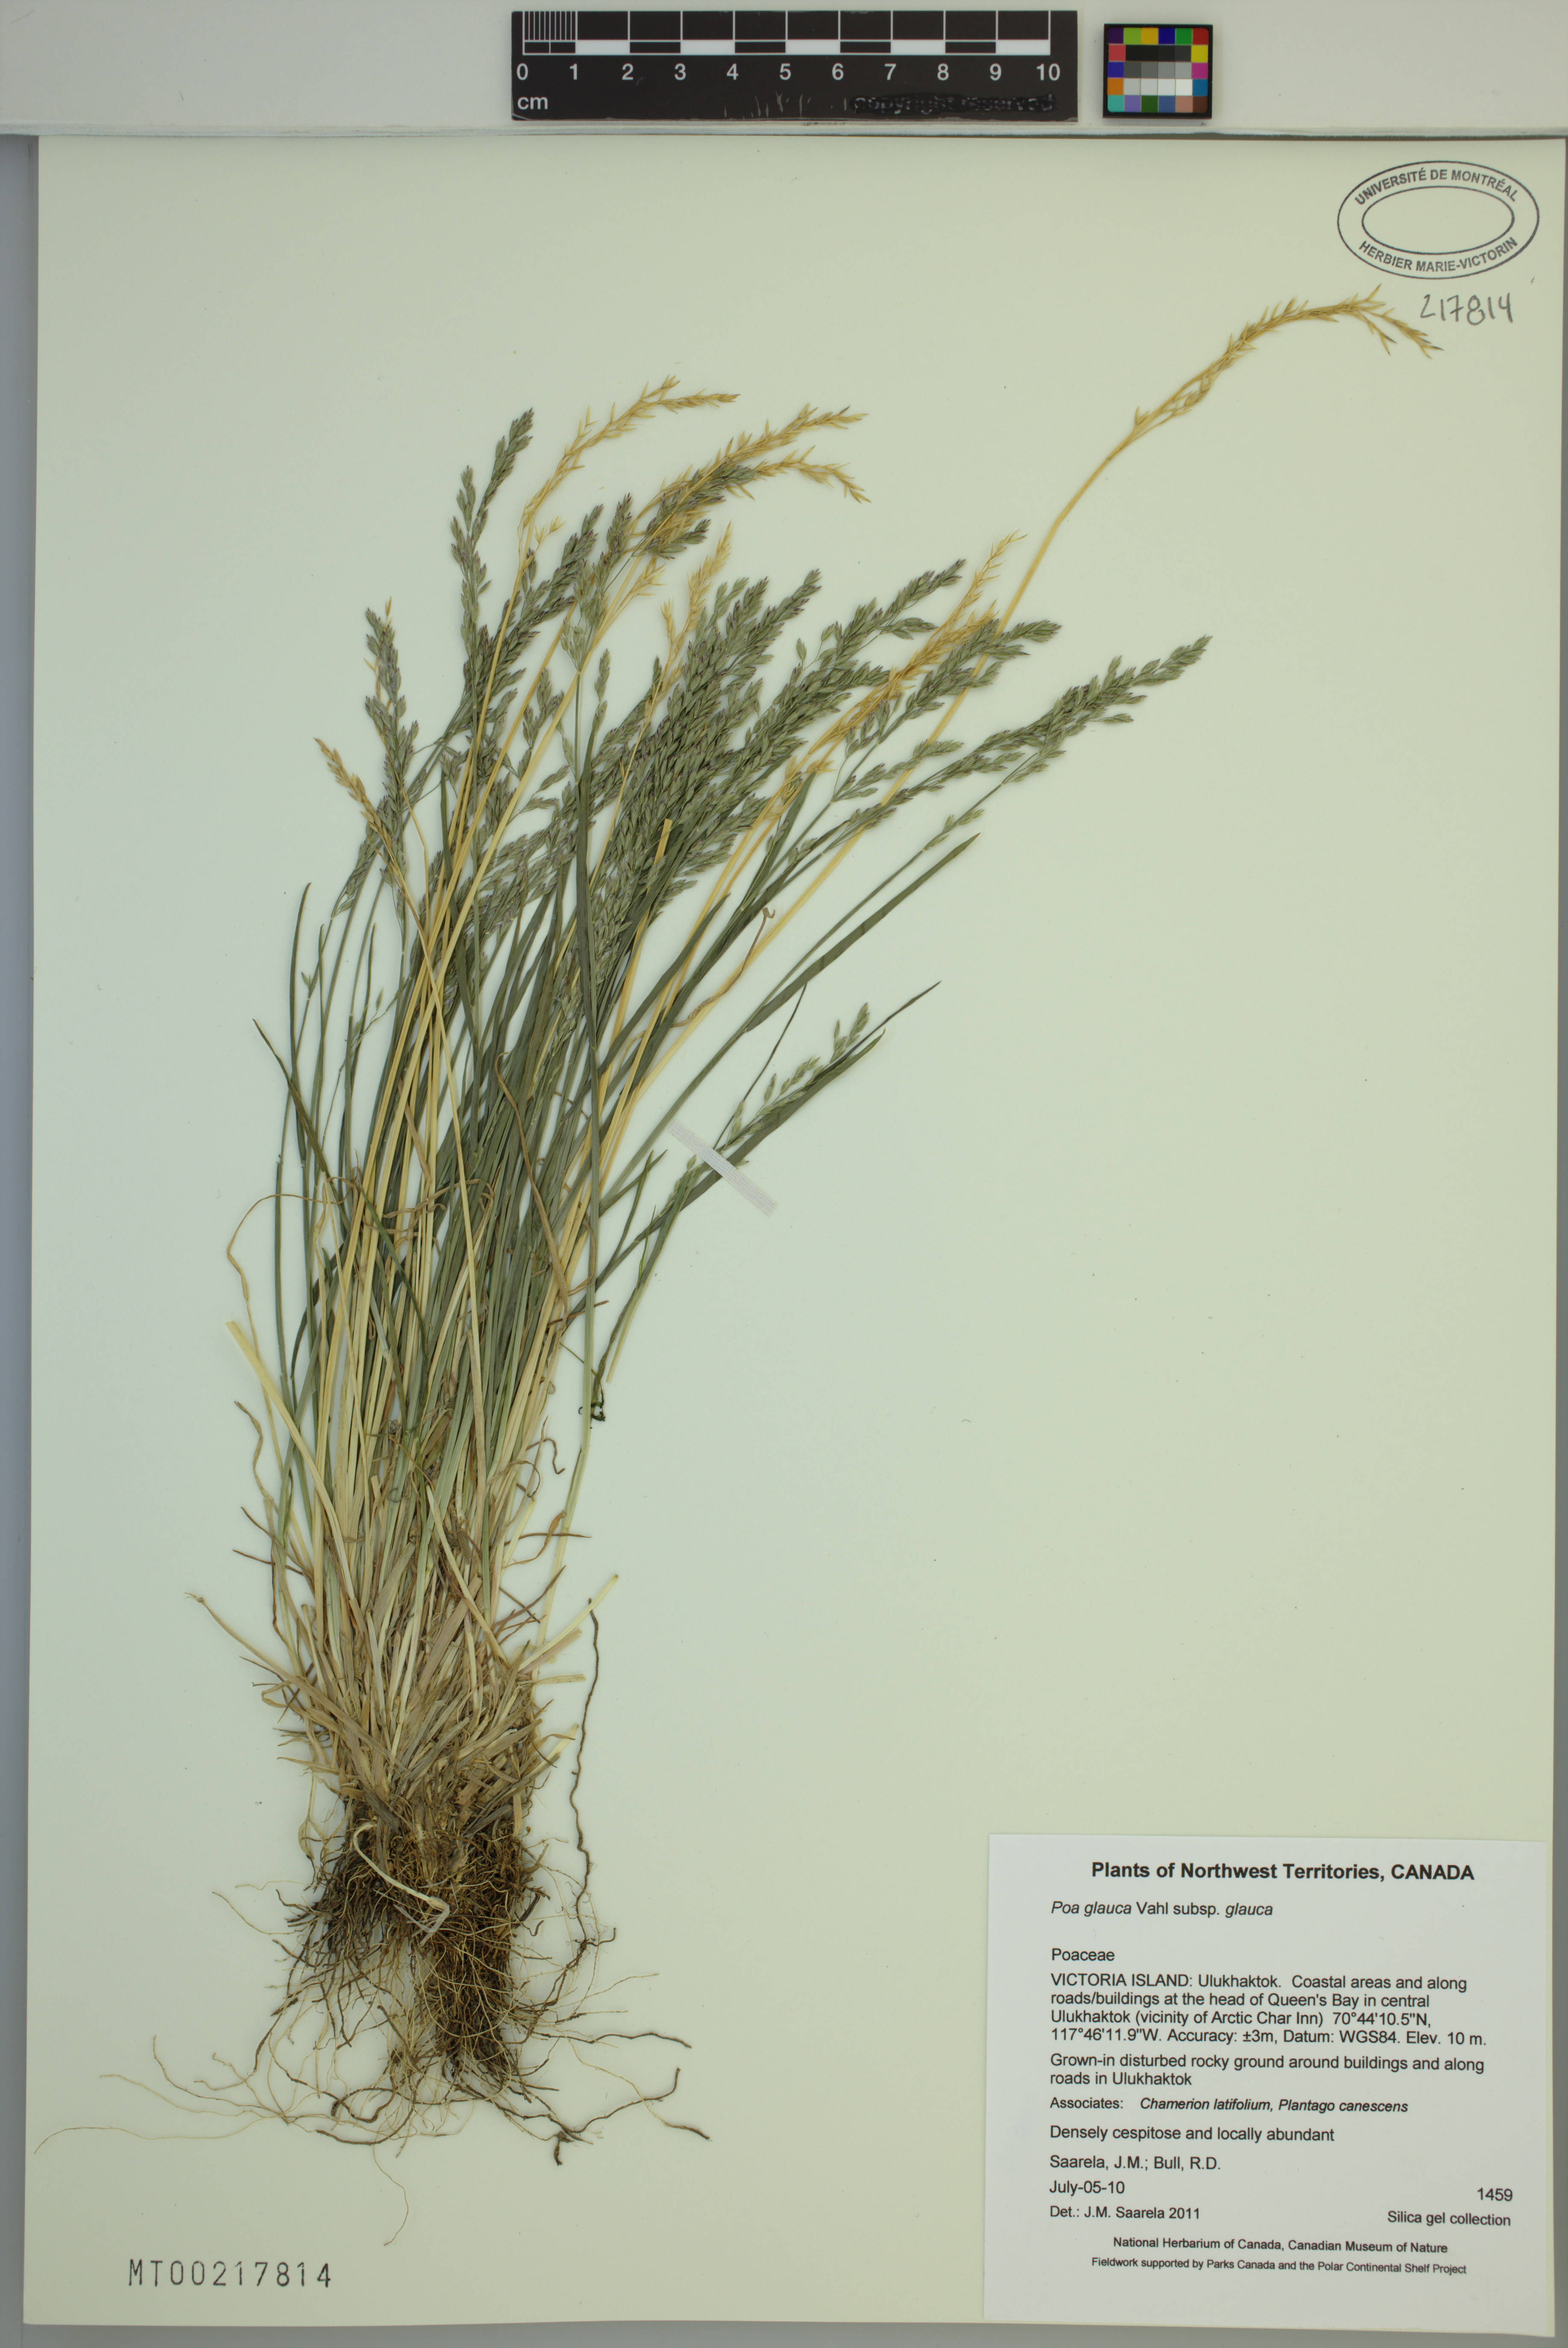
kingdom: Plantae
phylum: Tracheophyta
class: Liliopsida
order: Poales
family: Poaceae
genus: Poa
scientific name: Poa glauca
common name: Glaucous bluegrass
